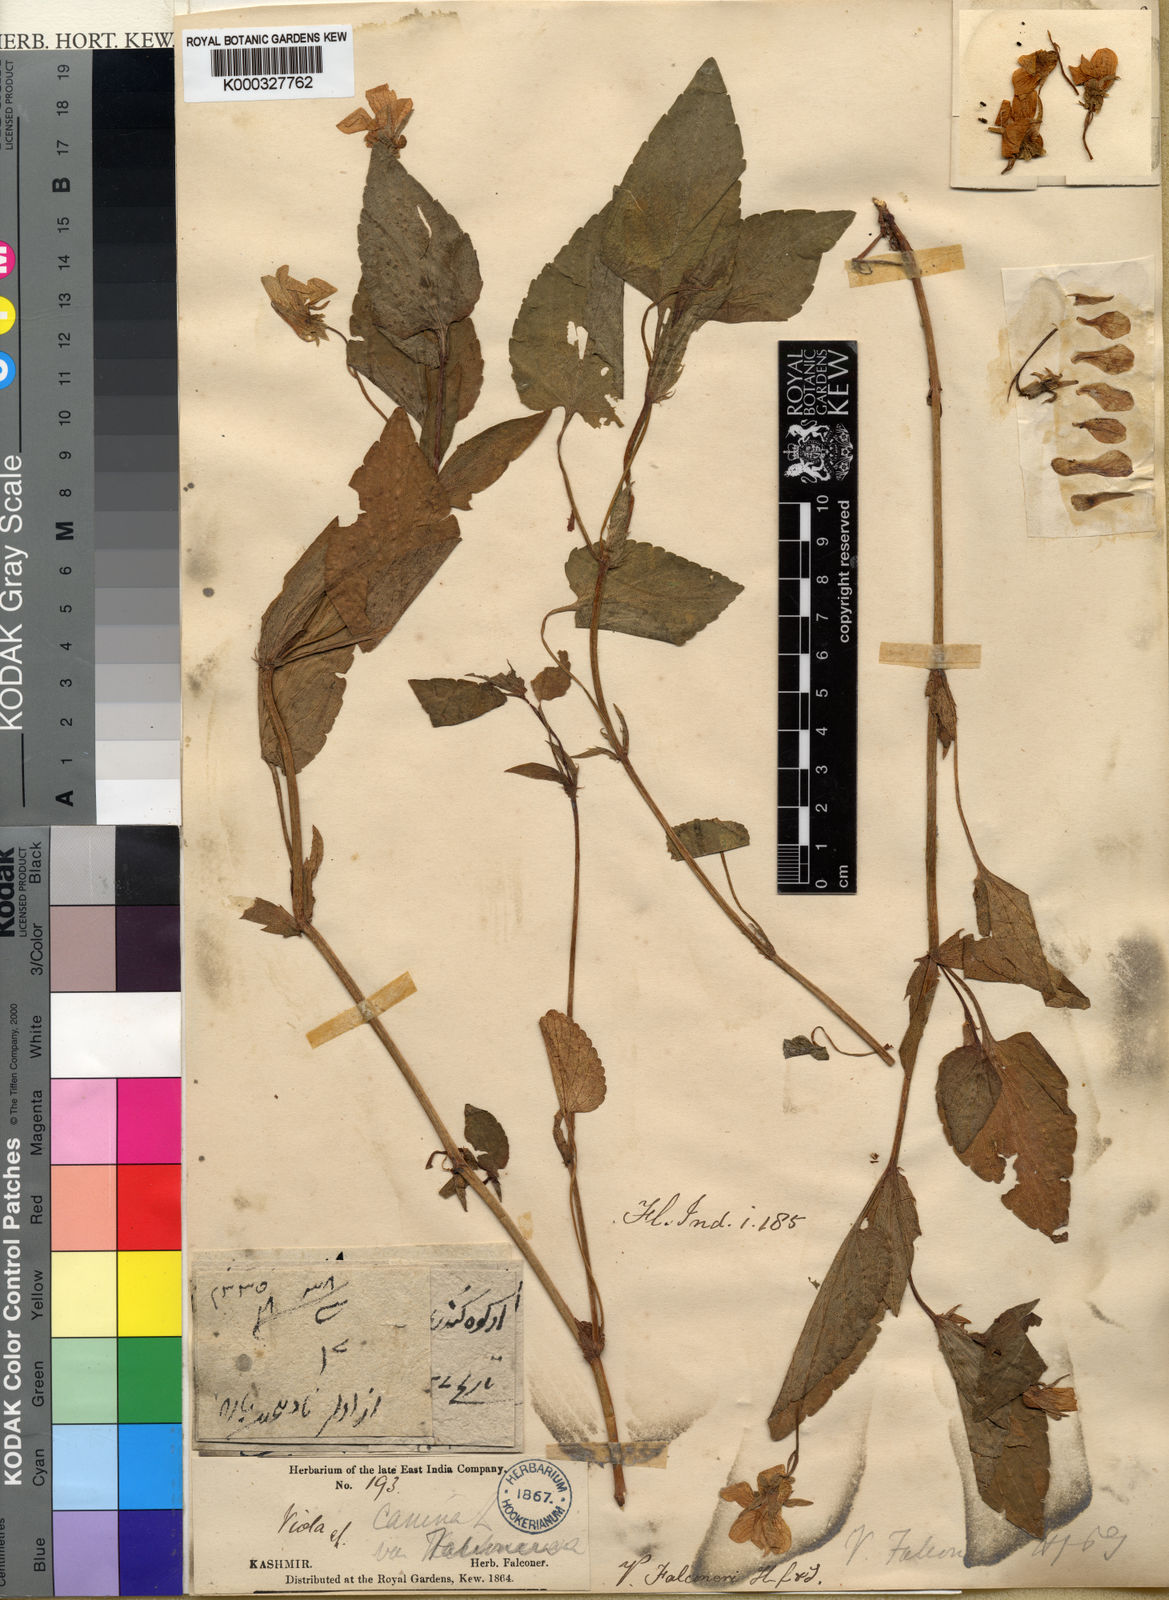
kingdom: Plantae
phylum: Tracheophyta
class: Magnoliopsida
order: Malpighiales
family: Violaceae
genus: Viola
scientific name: Viola jordanii
